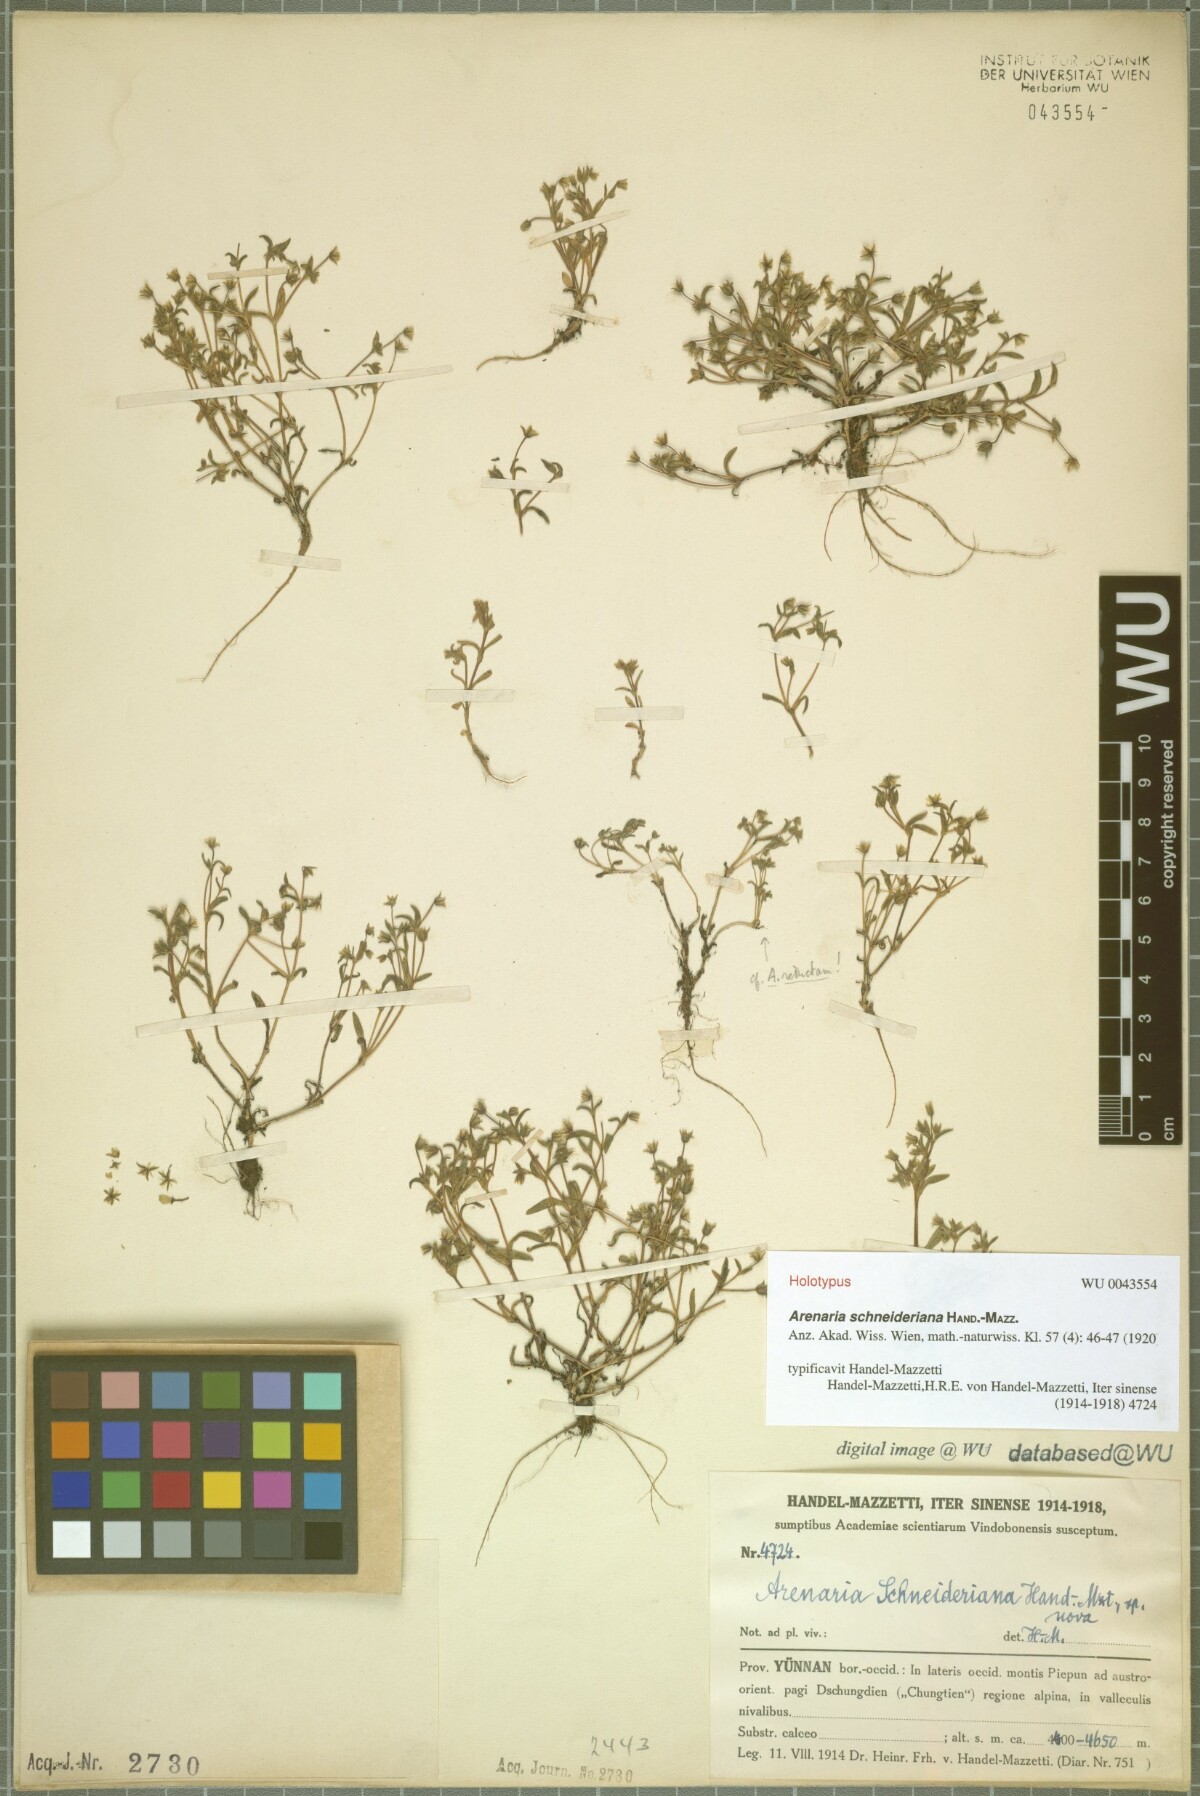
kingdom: Plantae
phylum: Tracheophyta
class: Magnoliopsida
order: Caryophyllales
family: Caryophyllaceae
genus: Odontostemma
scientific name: Odontostemma schneiderianum
